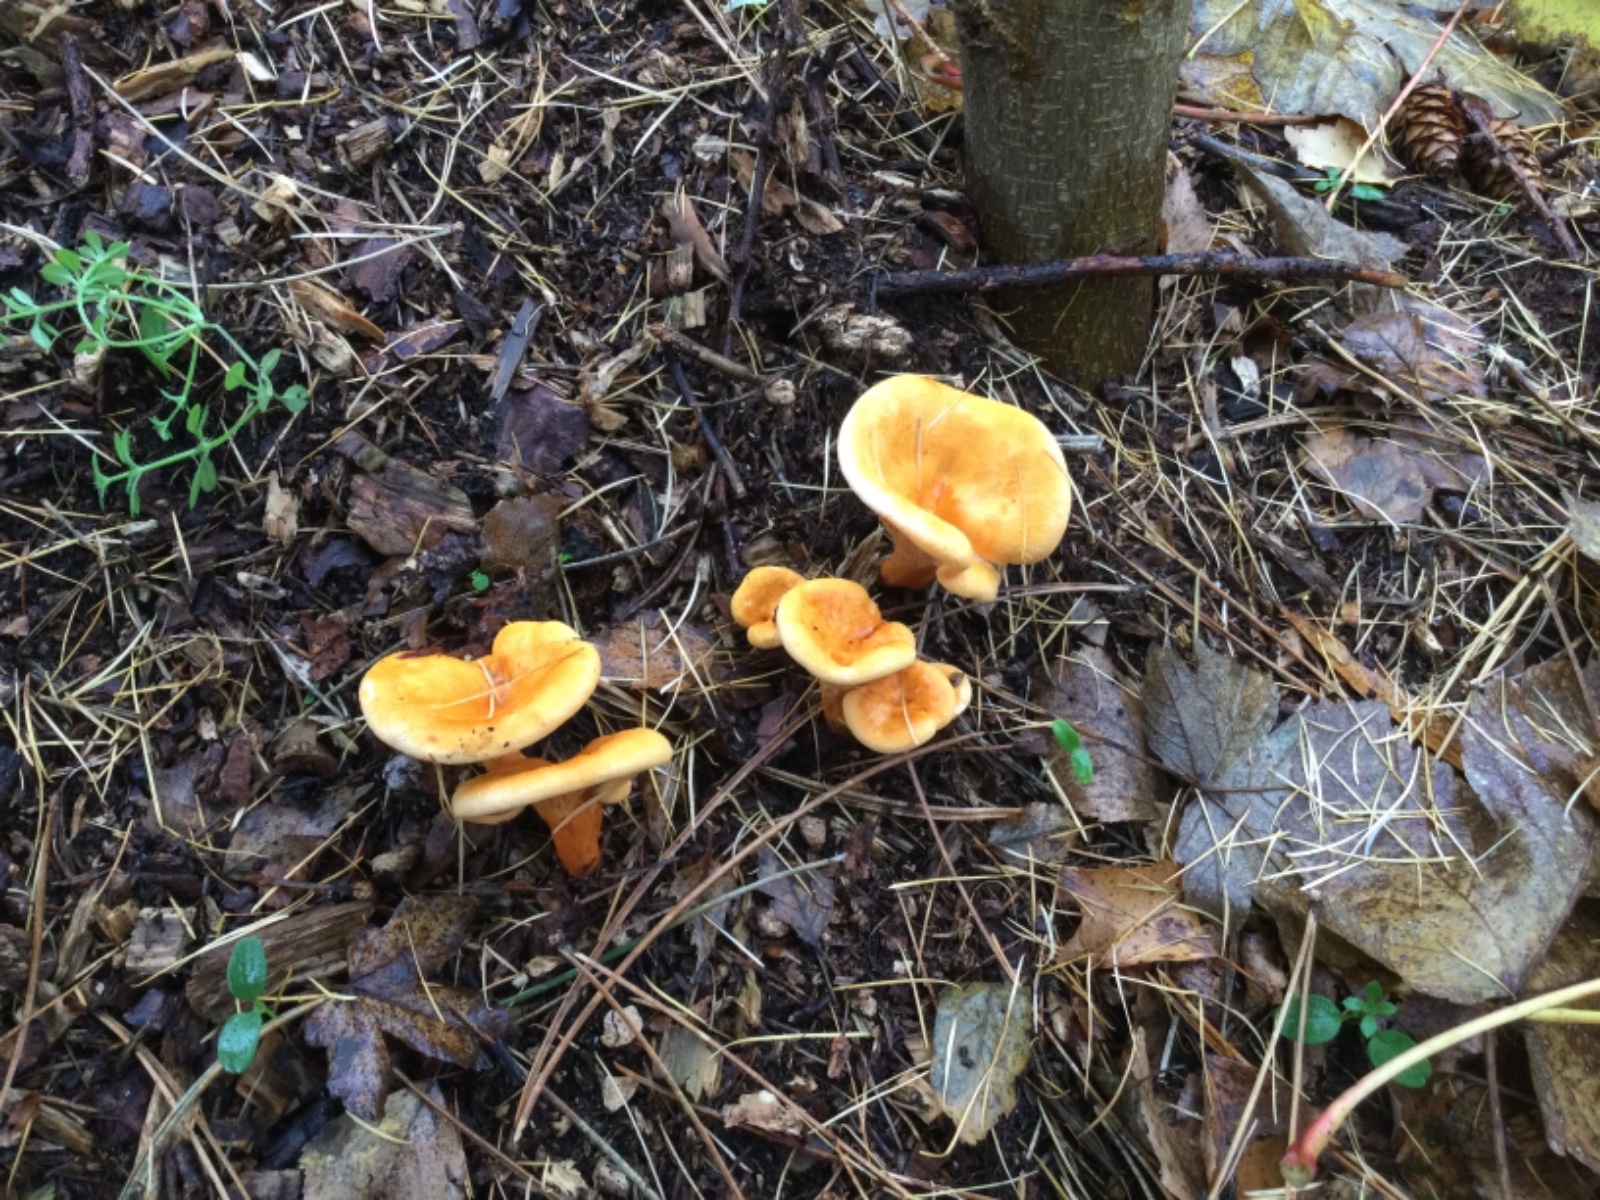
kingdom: Fungi
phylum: Basidiomycota
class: Agaricomycetes
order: Boletales
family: Hygrophoropsidaceae
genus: Hygrophoropsis
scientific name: Hygrophoropsis aurantiaca
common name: almindelig orangekantarel
